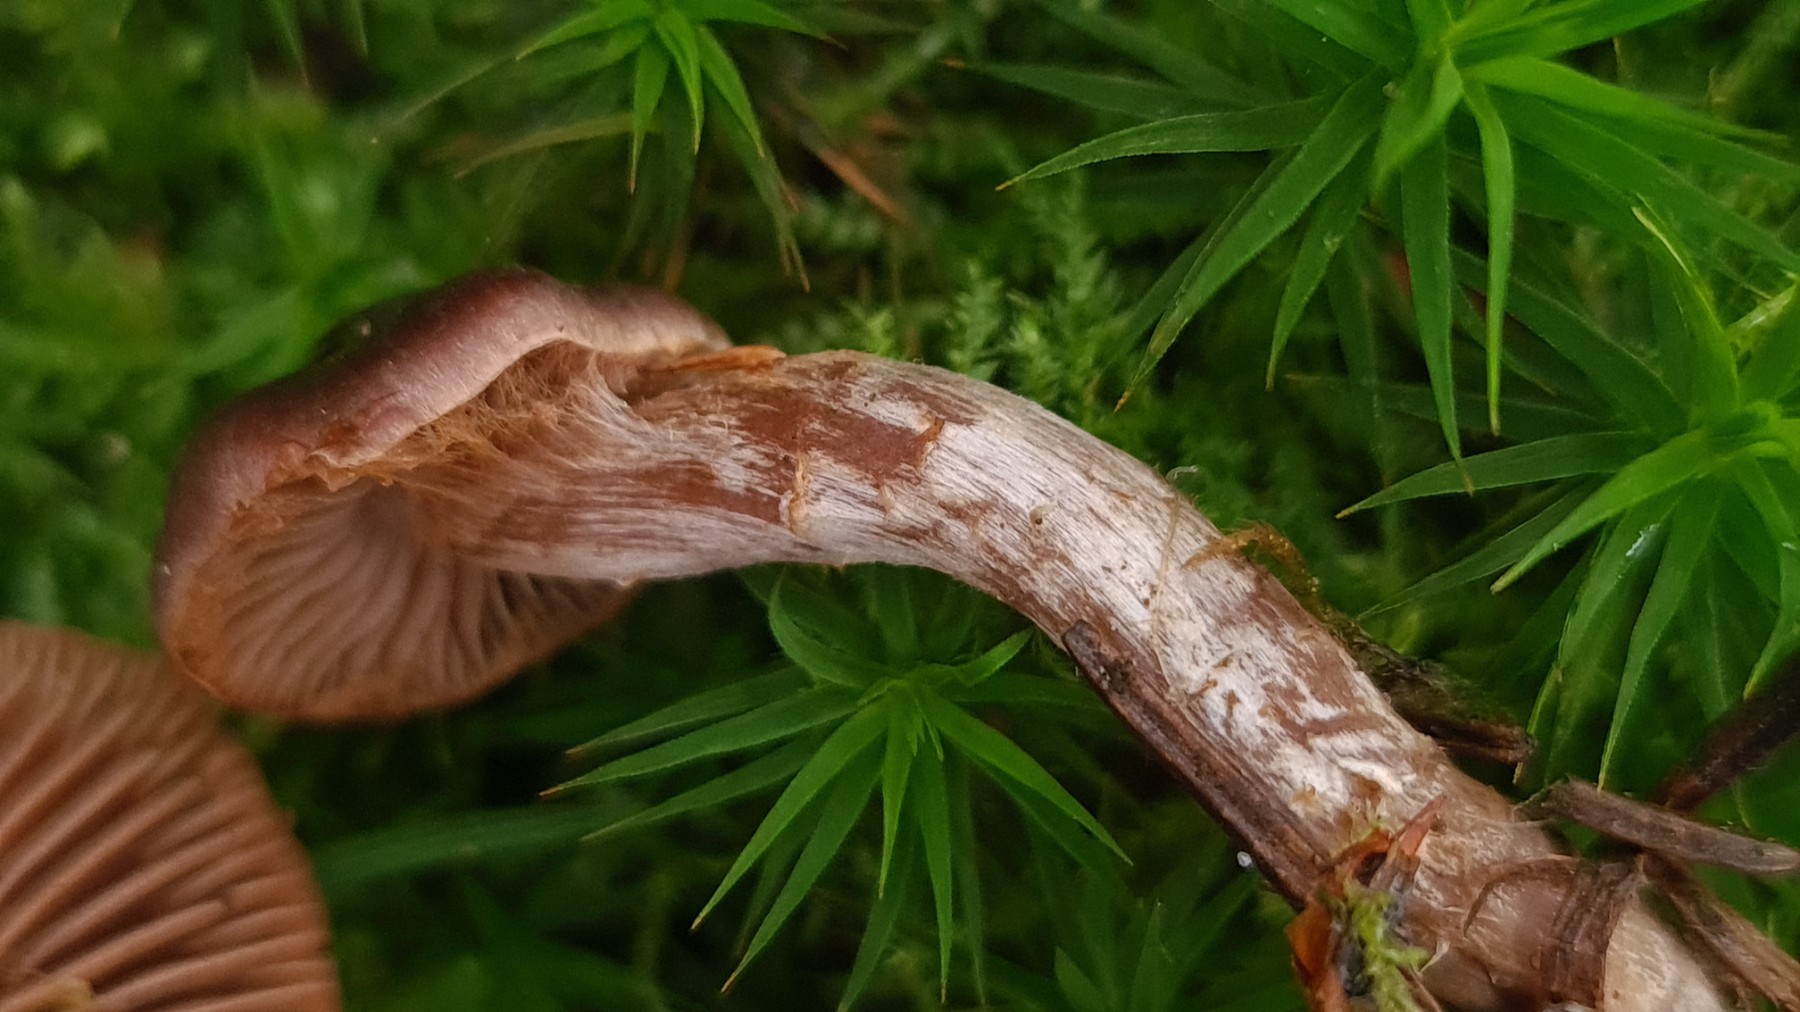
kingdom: Fungi
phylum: Basidiomycota
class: Agaricomycetes
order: Agaricales
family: Cortinariaceae
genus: Cortinarius
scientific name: Cortinarius inconspicuus
